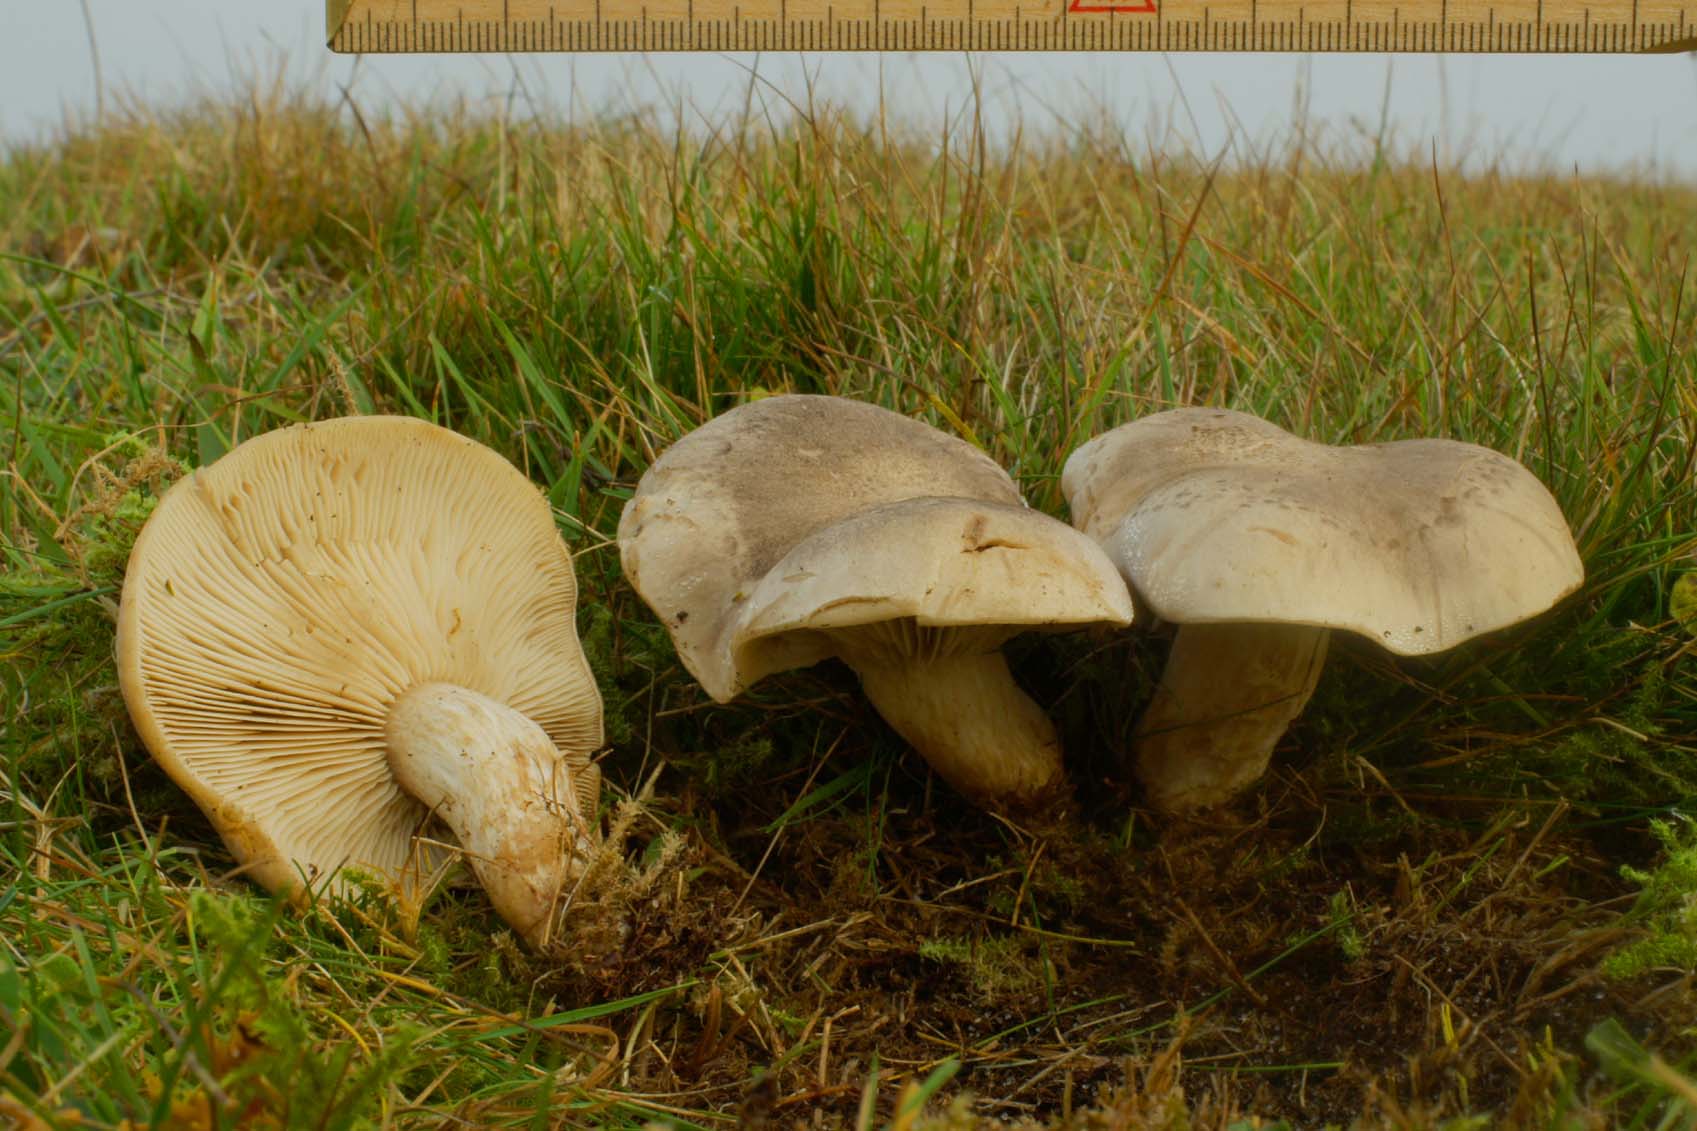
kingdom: Fungi
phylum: Basidiomycota
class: Agaricomycetes
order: Agaricales
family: Tricholomataceae
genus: Lepista
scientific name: Lepista panaeolus
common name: marmoreret hekseringshat
